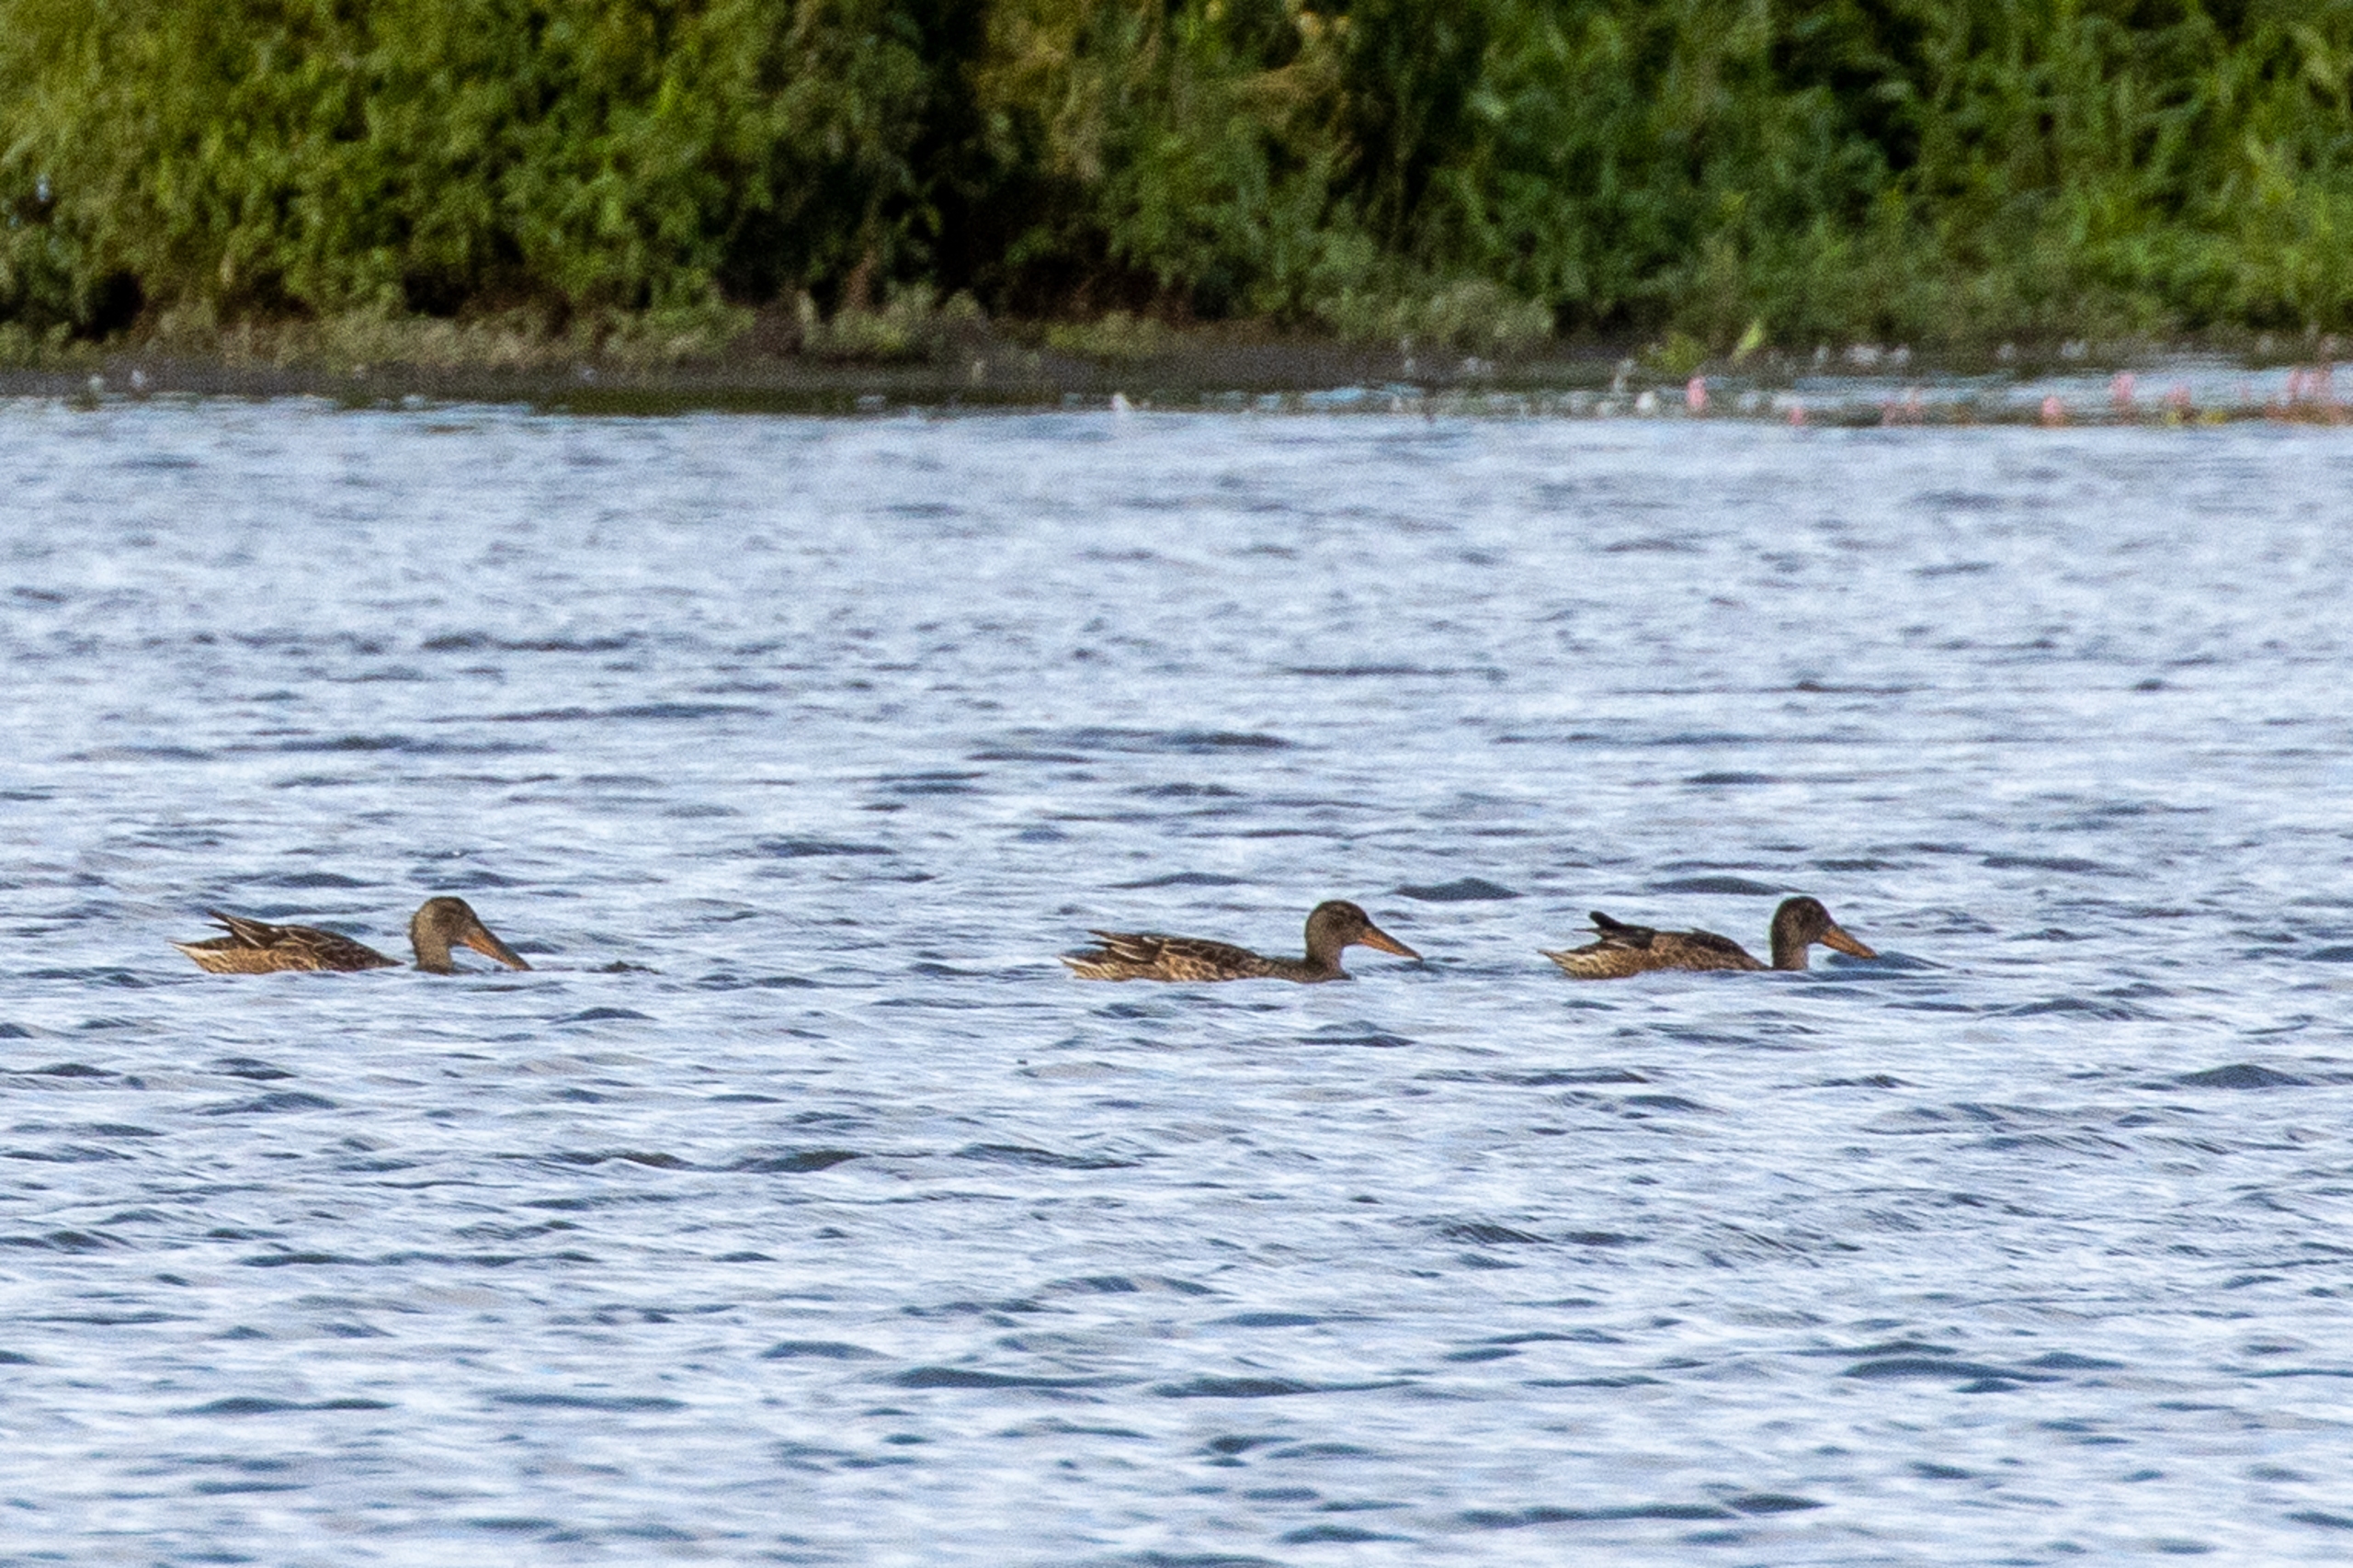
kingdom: Animalia
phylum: Chordata
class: Aves
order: Anseriformes
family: Anatidae
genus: Spatula
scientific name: Spatula clypeata
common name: Skeand
